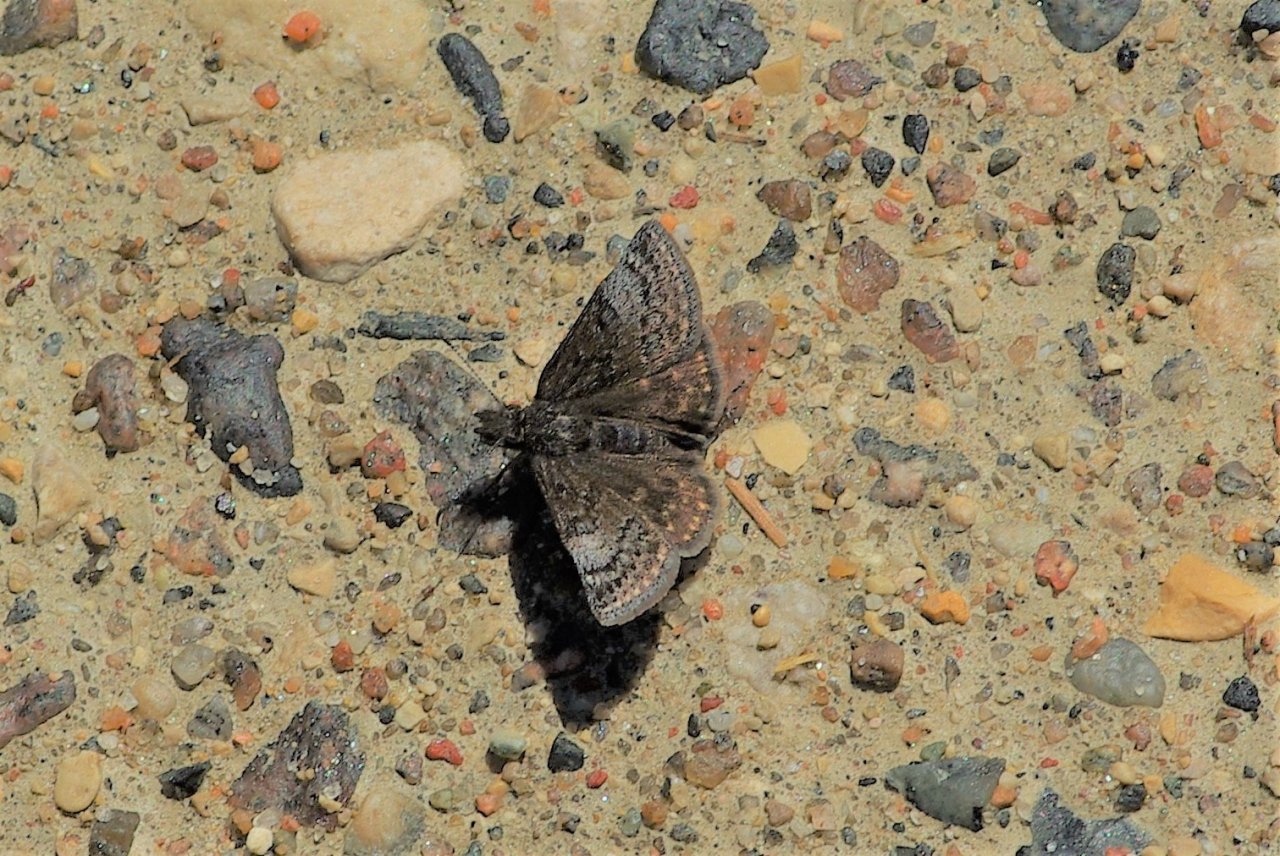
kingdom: Animalia
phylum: Arthropoda
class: Insecta
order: Lepidoptera
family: Hesperiidae
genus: Erynnis
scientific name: Erynnis icelus
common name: Dreamy Duskywing
